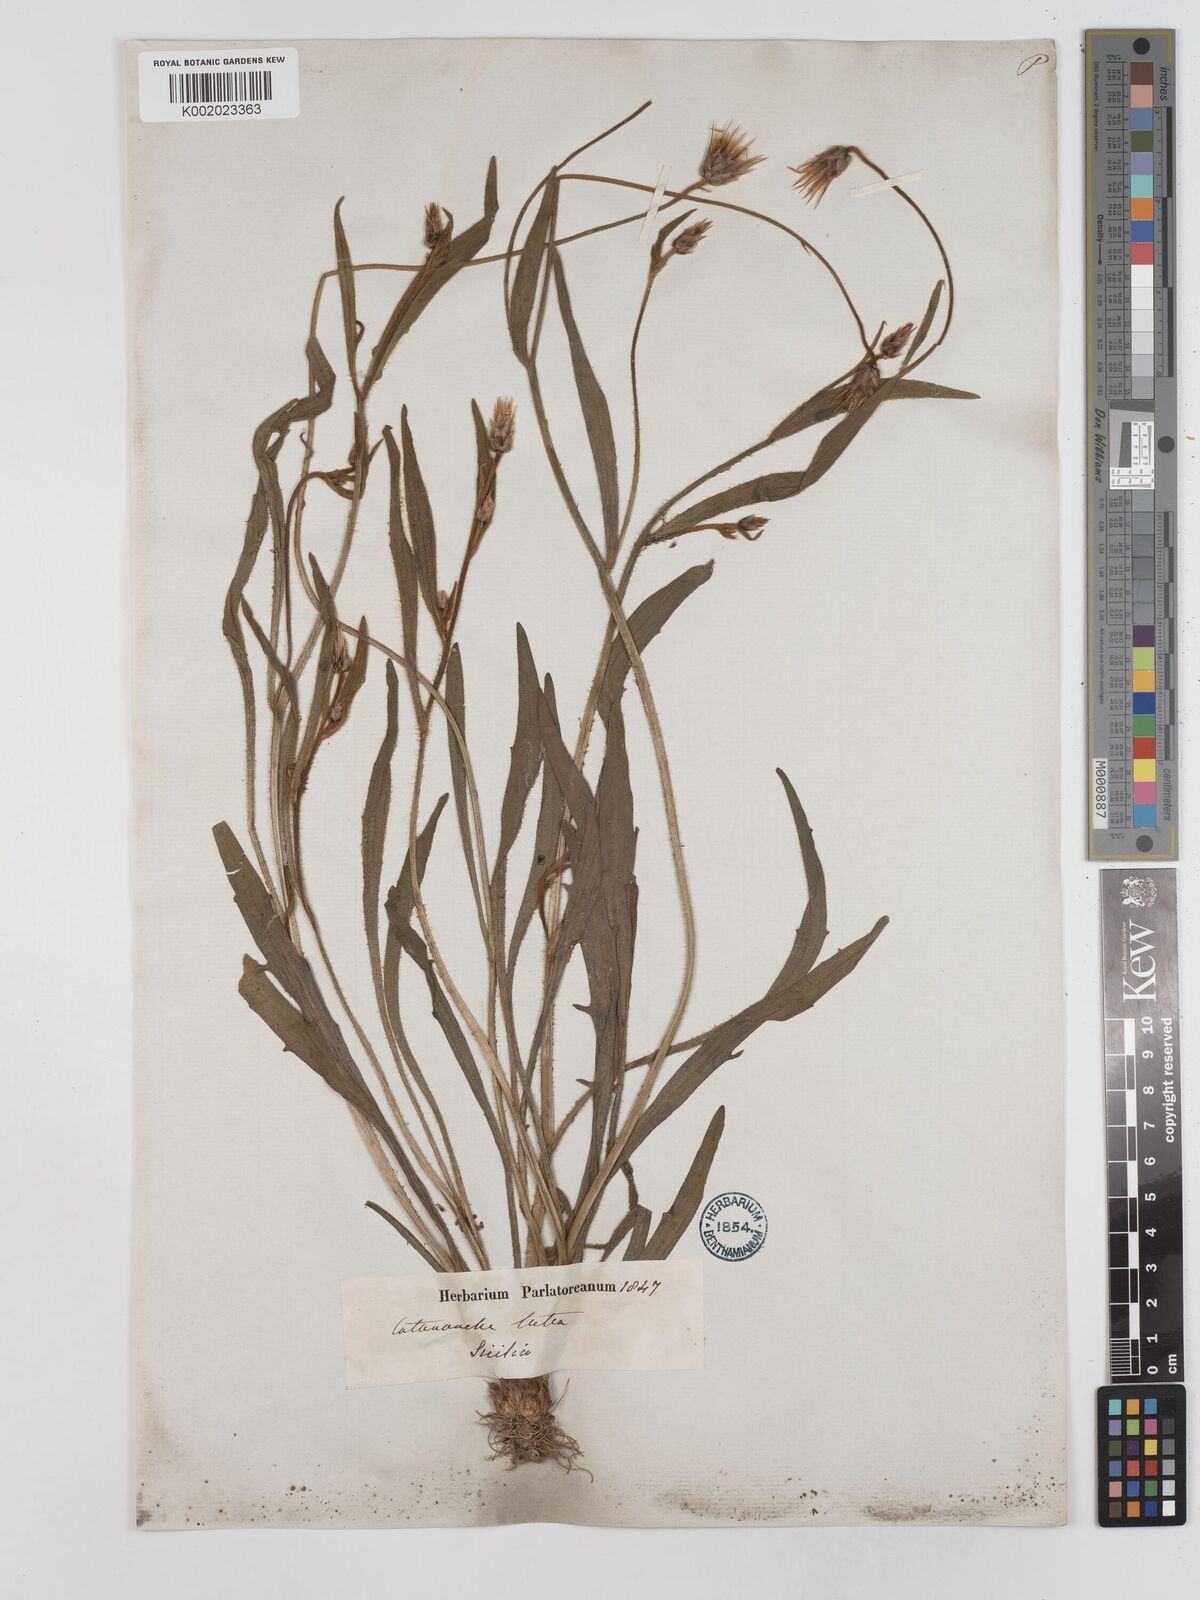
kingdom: Plantae
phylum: Tracheophyta
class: Magnoliopsida
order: Asterales
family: Asteraceae
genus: Catananche
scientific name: Catananche lutea
